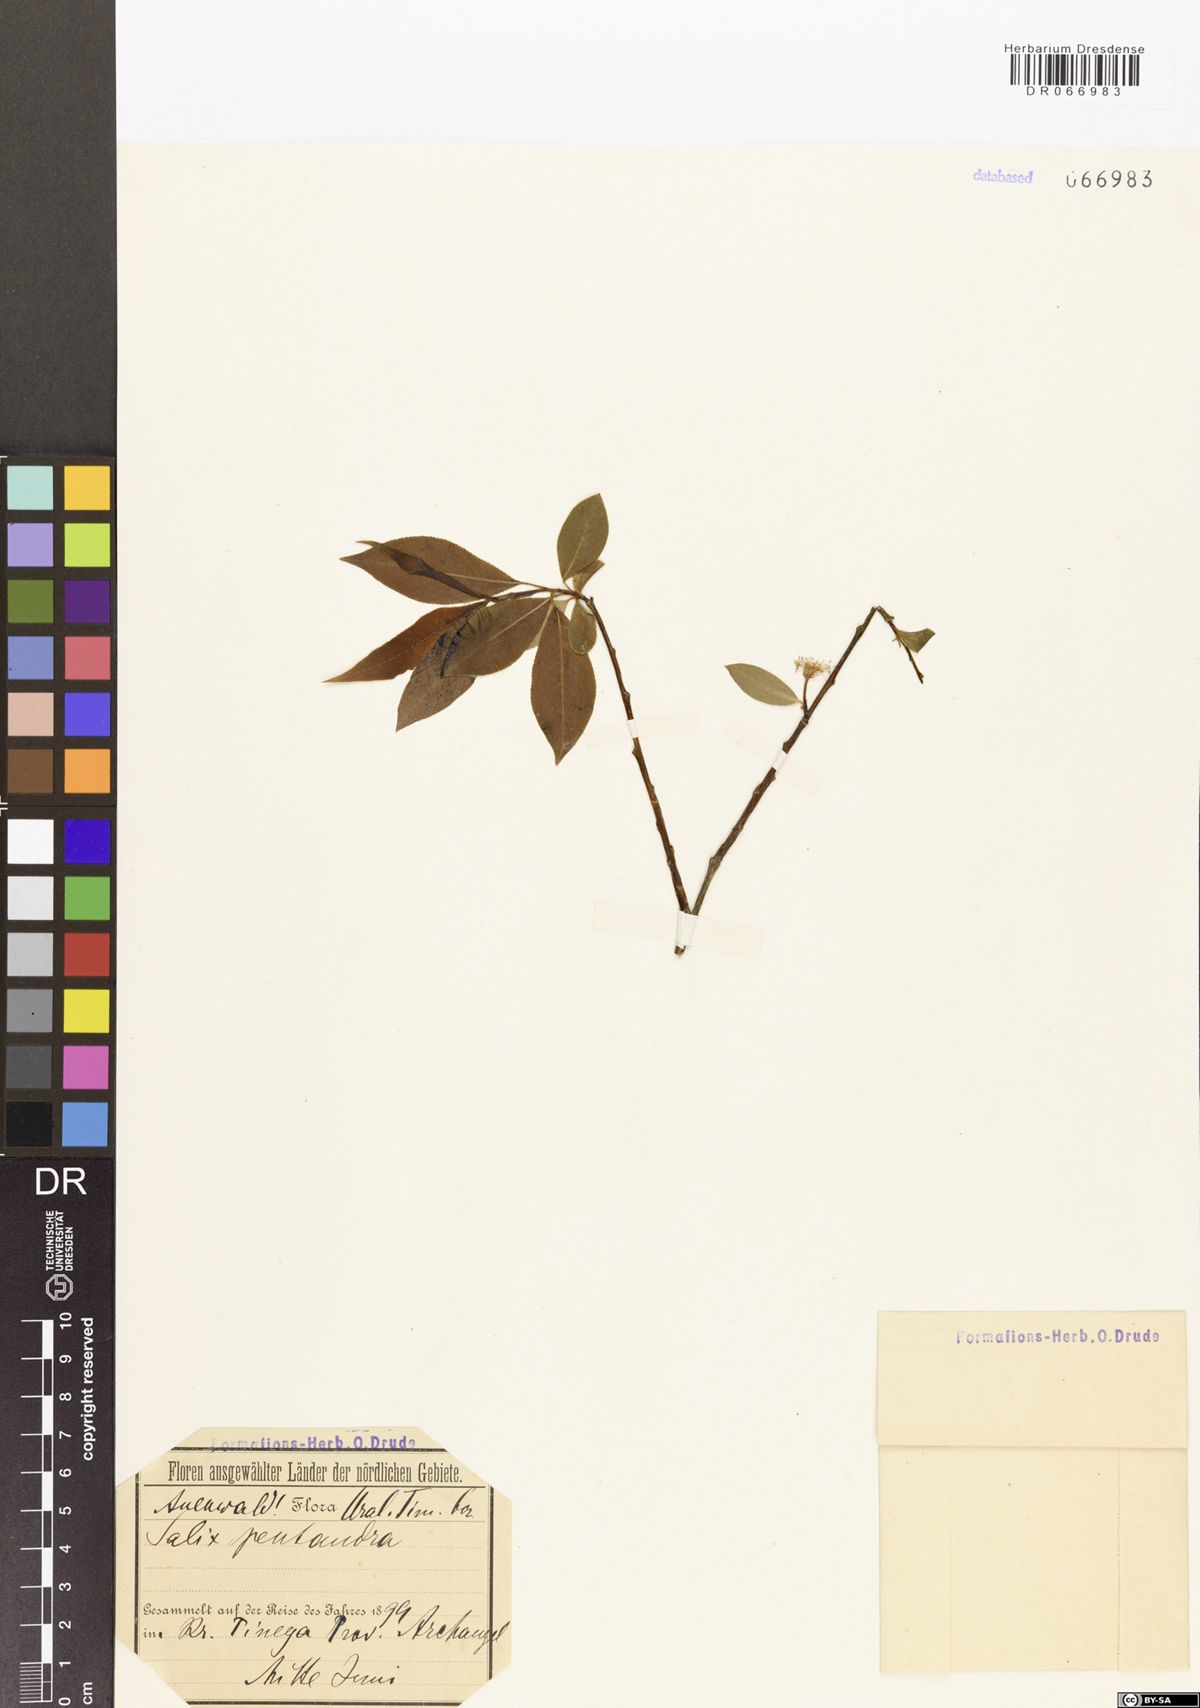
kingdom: Plantae
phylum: Tracheophyta
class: Magnoliopsida
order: Malpighiales
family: Salicaceae
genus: Salix
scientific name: Salix pentandra
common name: Bay willow
